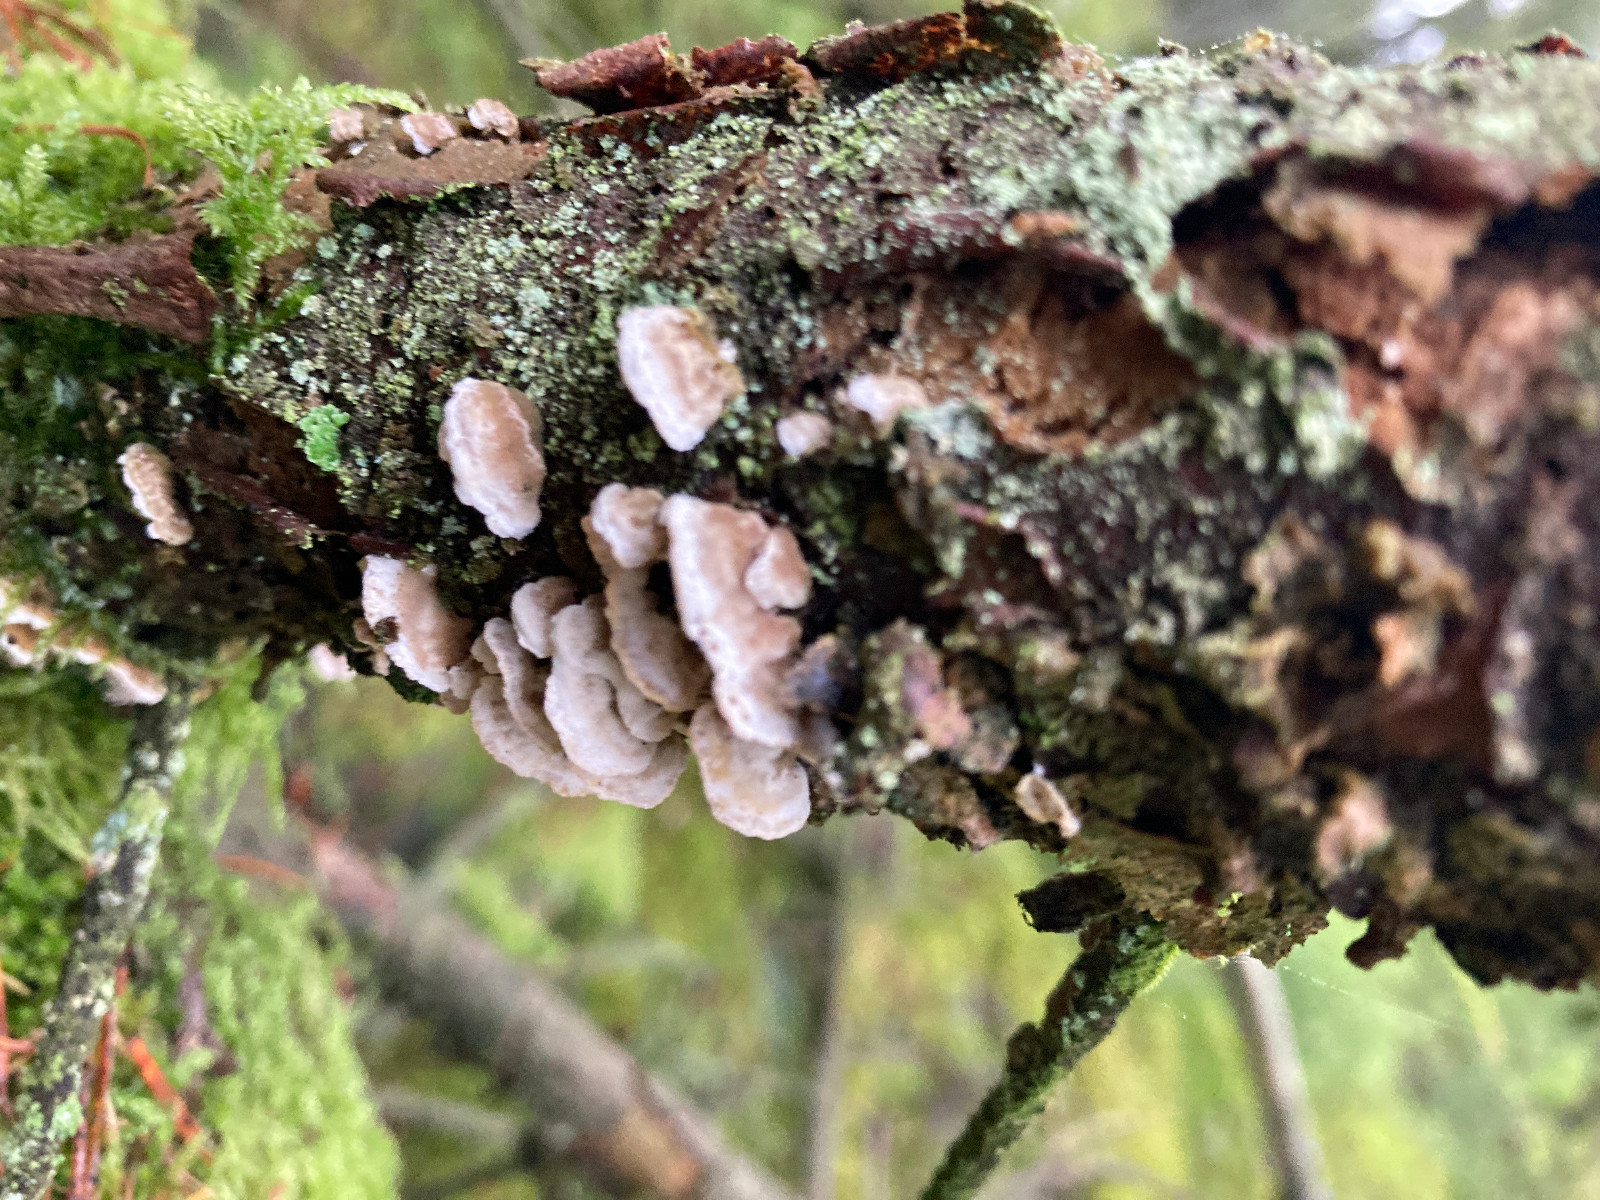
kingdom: Fungi
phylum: Basidiomycota
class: Agaricomycetes
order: Polyporales
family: Incrustoporiaceae
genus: Skeletocutis
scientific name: Skeletocutis carneogrisea
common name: rødgrå krystalporesvamp
